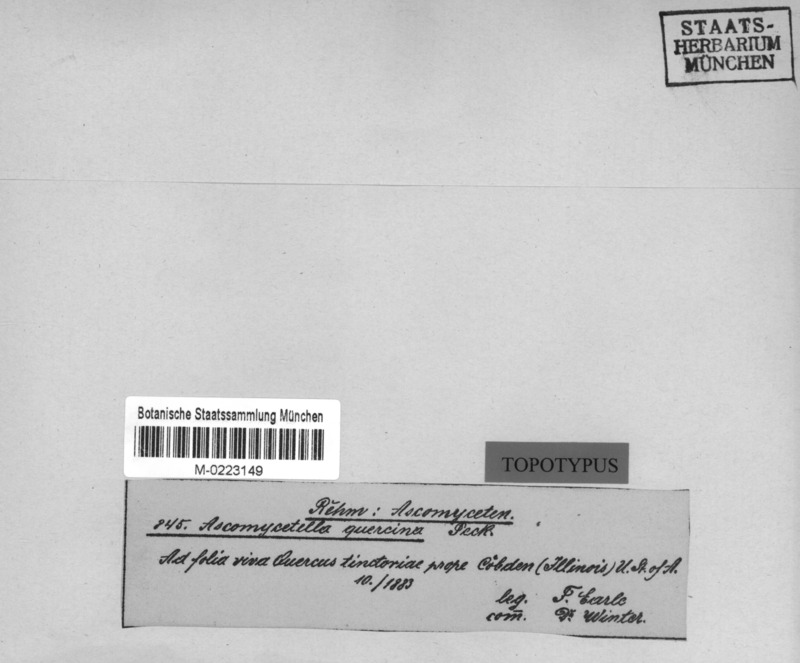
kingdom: Fungi
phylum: Ascomycota
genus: Articularia
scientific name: Articularia quercina
